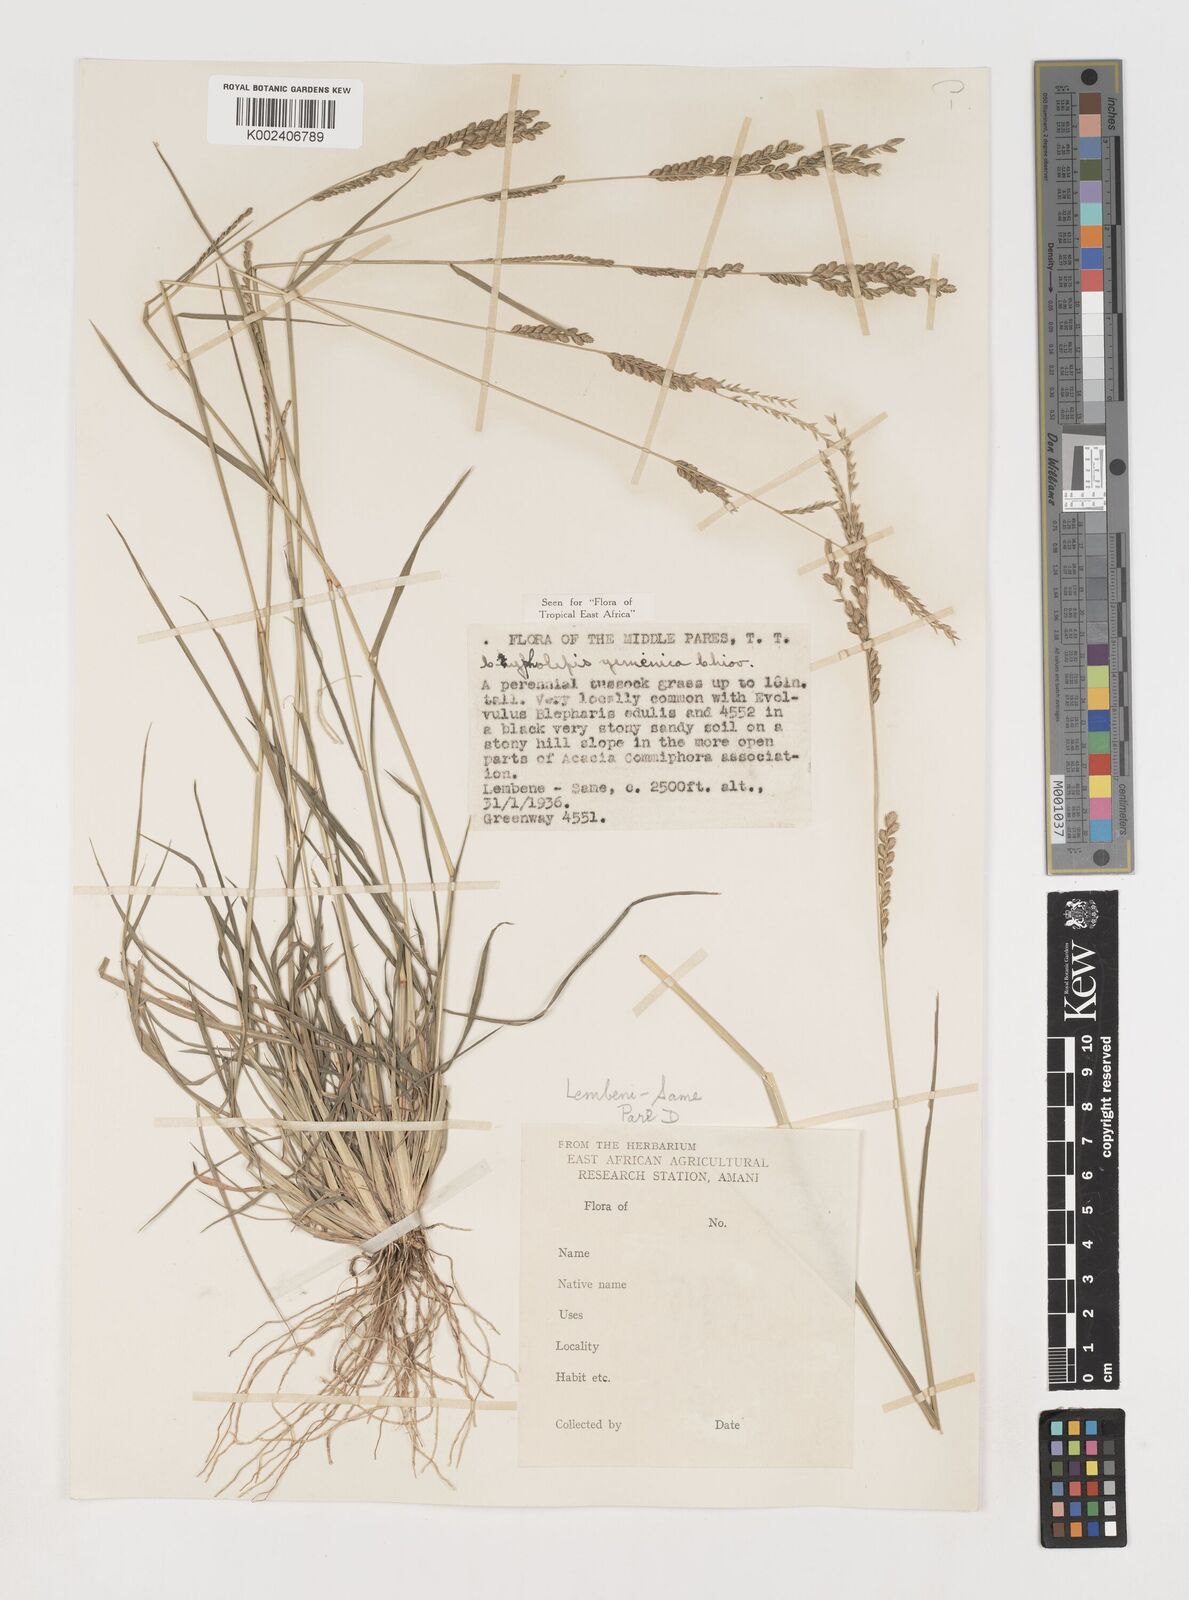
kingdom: Plantae
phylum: Tracheophyta
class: Liliopsida
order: Poales
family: Poaceae
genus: Disakisperma
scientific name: Disakisperma yemenicum
